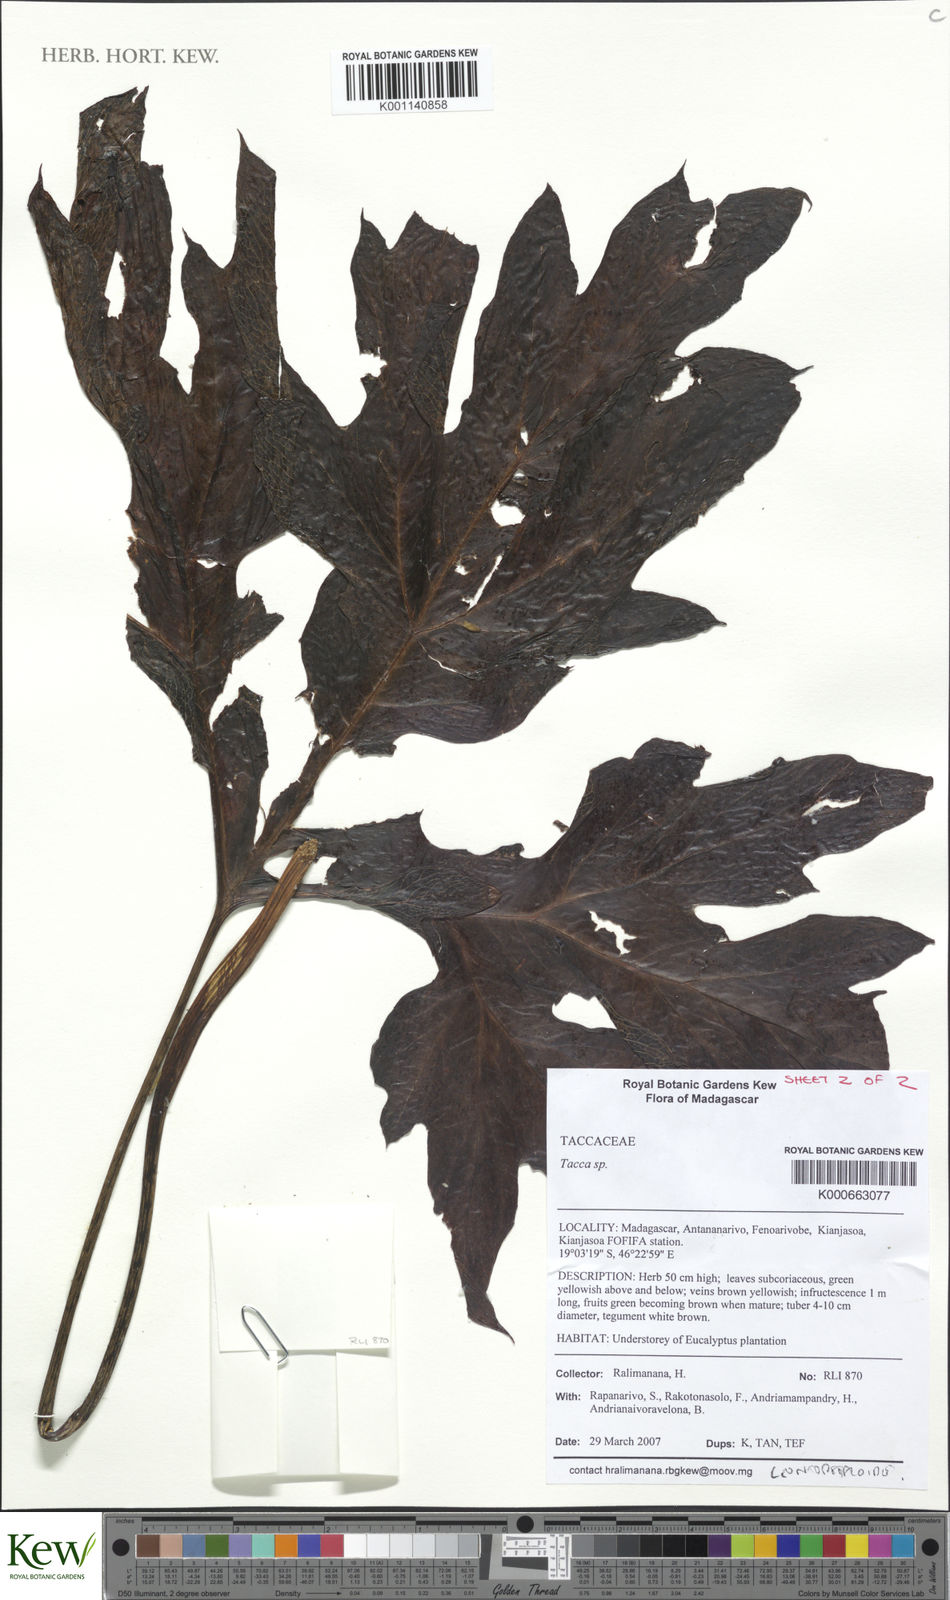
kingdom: Plantae
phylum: Tracheophyta
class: Liliopsida
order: Dioscoreales
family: Dioscoreaceae
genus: Tacca
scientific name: Tacca
